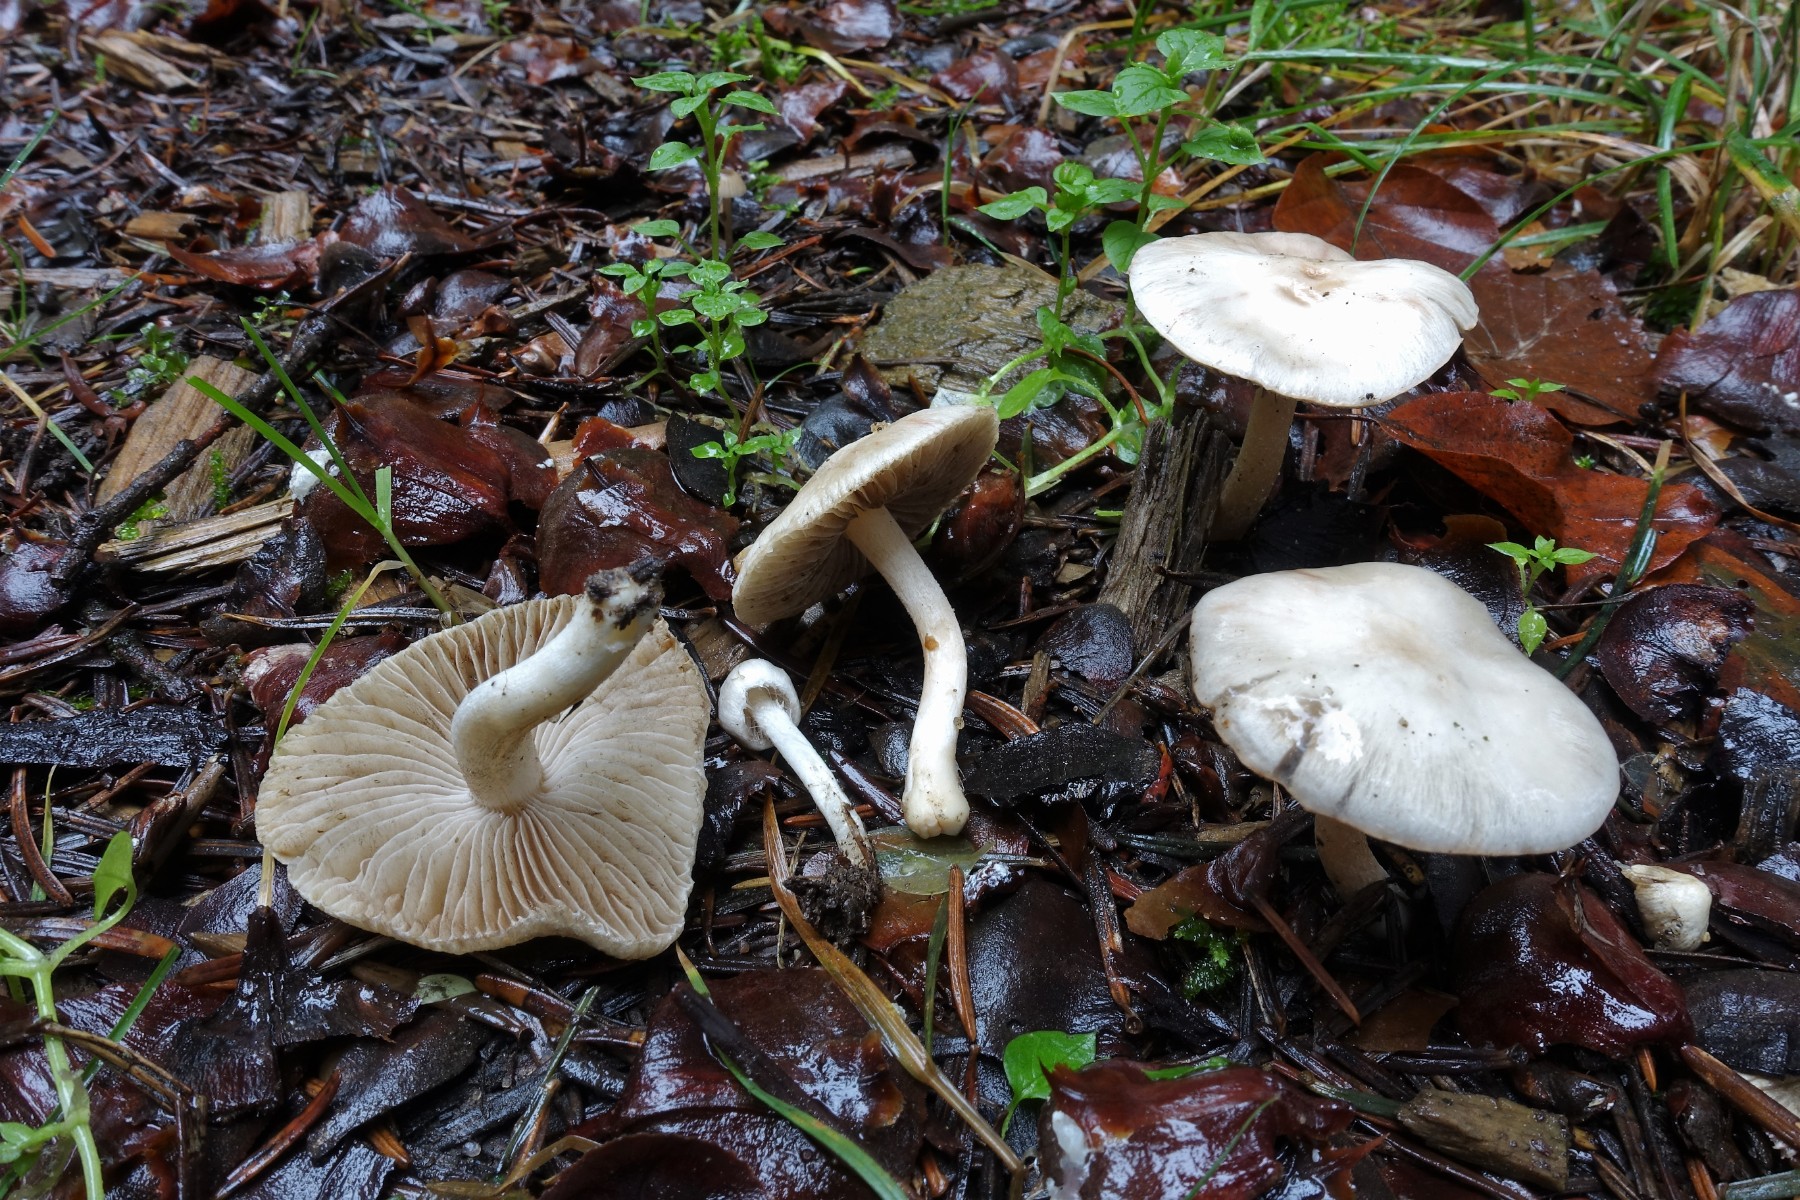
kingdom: Fungi
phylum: Basidiomycota
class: Agaricomycetes
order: Agaricales
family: Inocybaceae
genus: Inocybe
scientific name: Inocybe
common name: almindelig trævlhat
